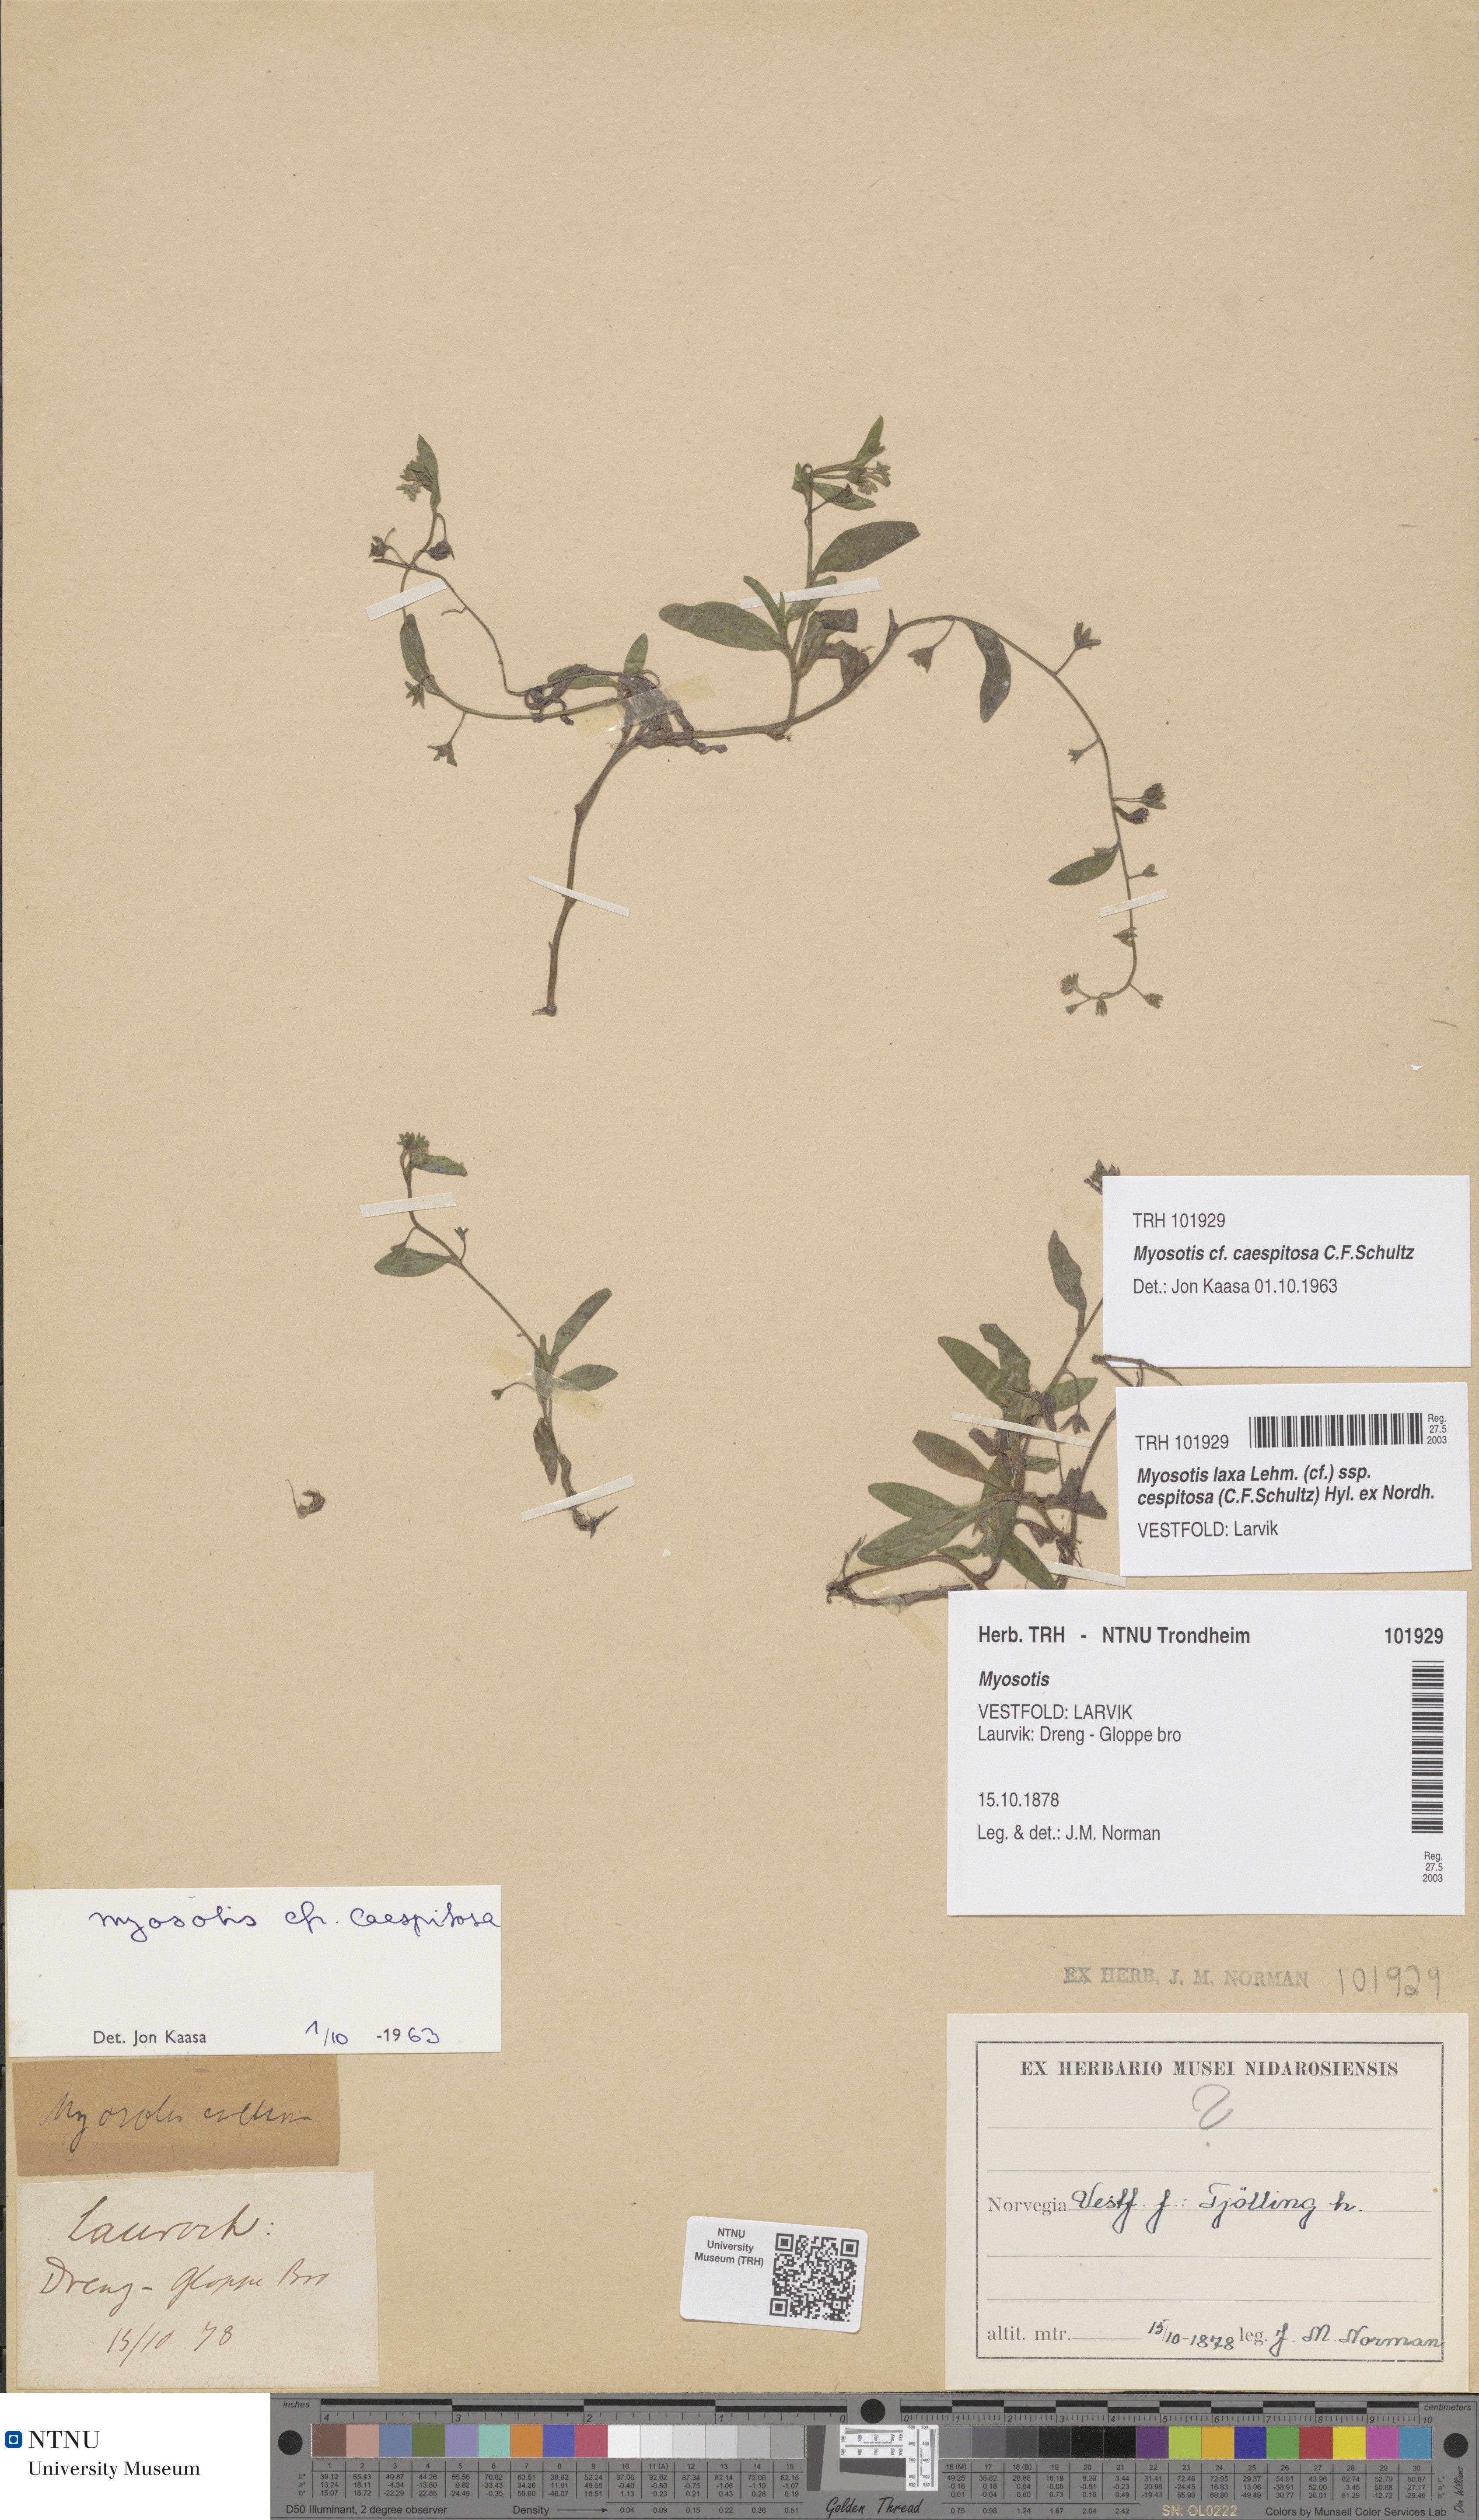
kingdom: Plantae
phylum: Tracheophyta
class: Magnoliopsida
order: Boraginales
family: Boraginaceae
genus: Myosotis
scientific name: Myosotis laxa
